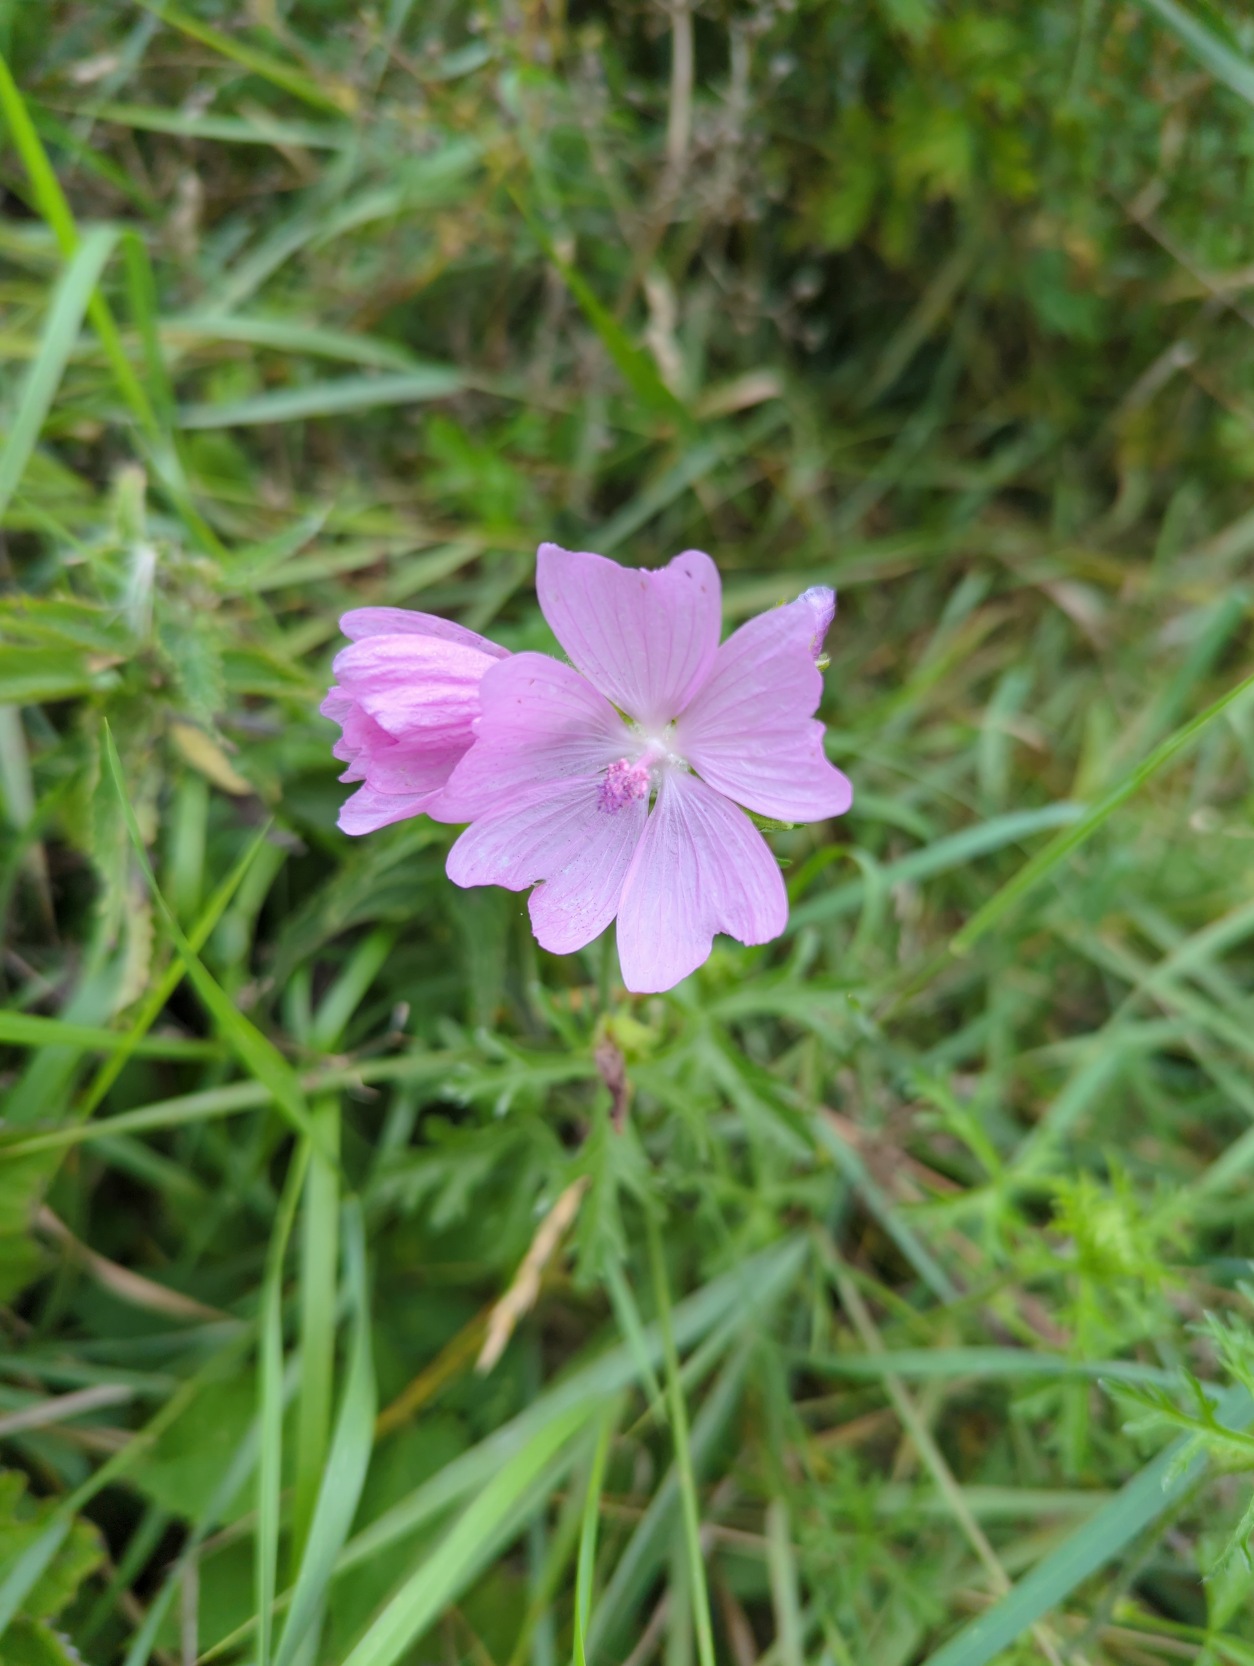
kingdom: Plantae
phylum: Tracheophyta
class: Magnoliopsida
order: Malvales
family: Malvaceae
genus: Malva
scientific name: Malva moschata
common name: Moskus-katost
